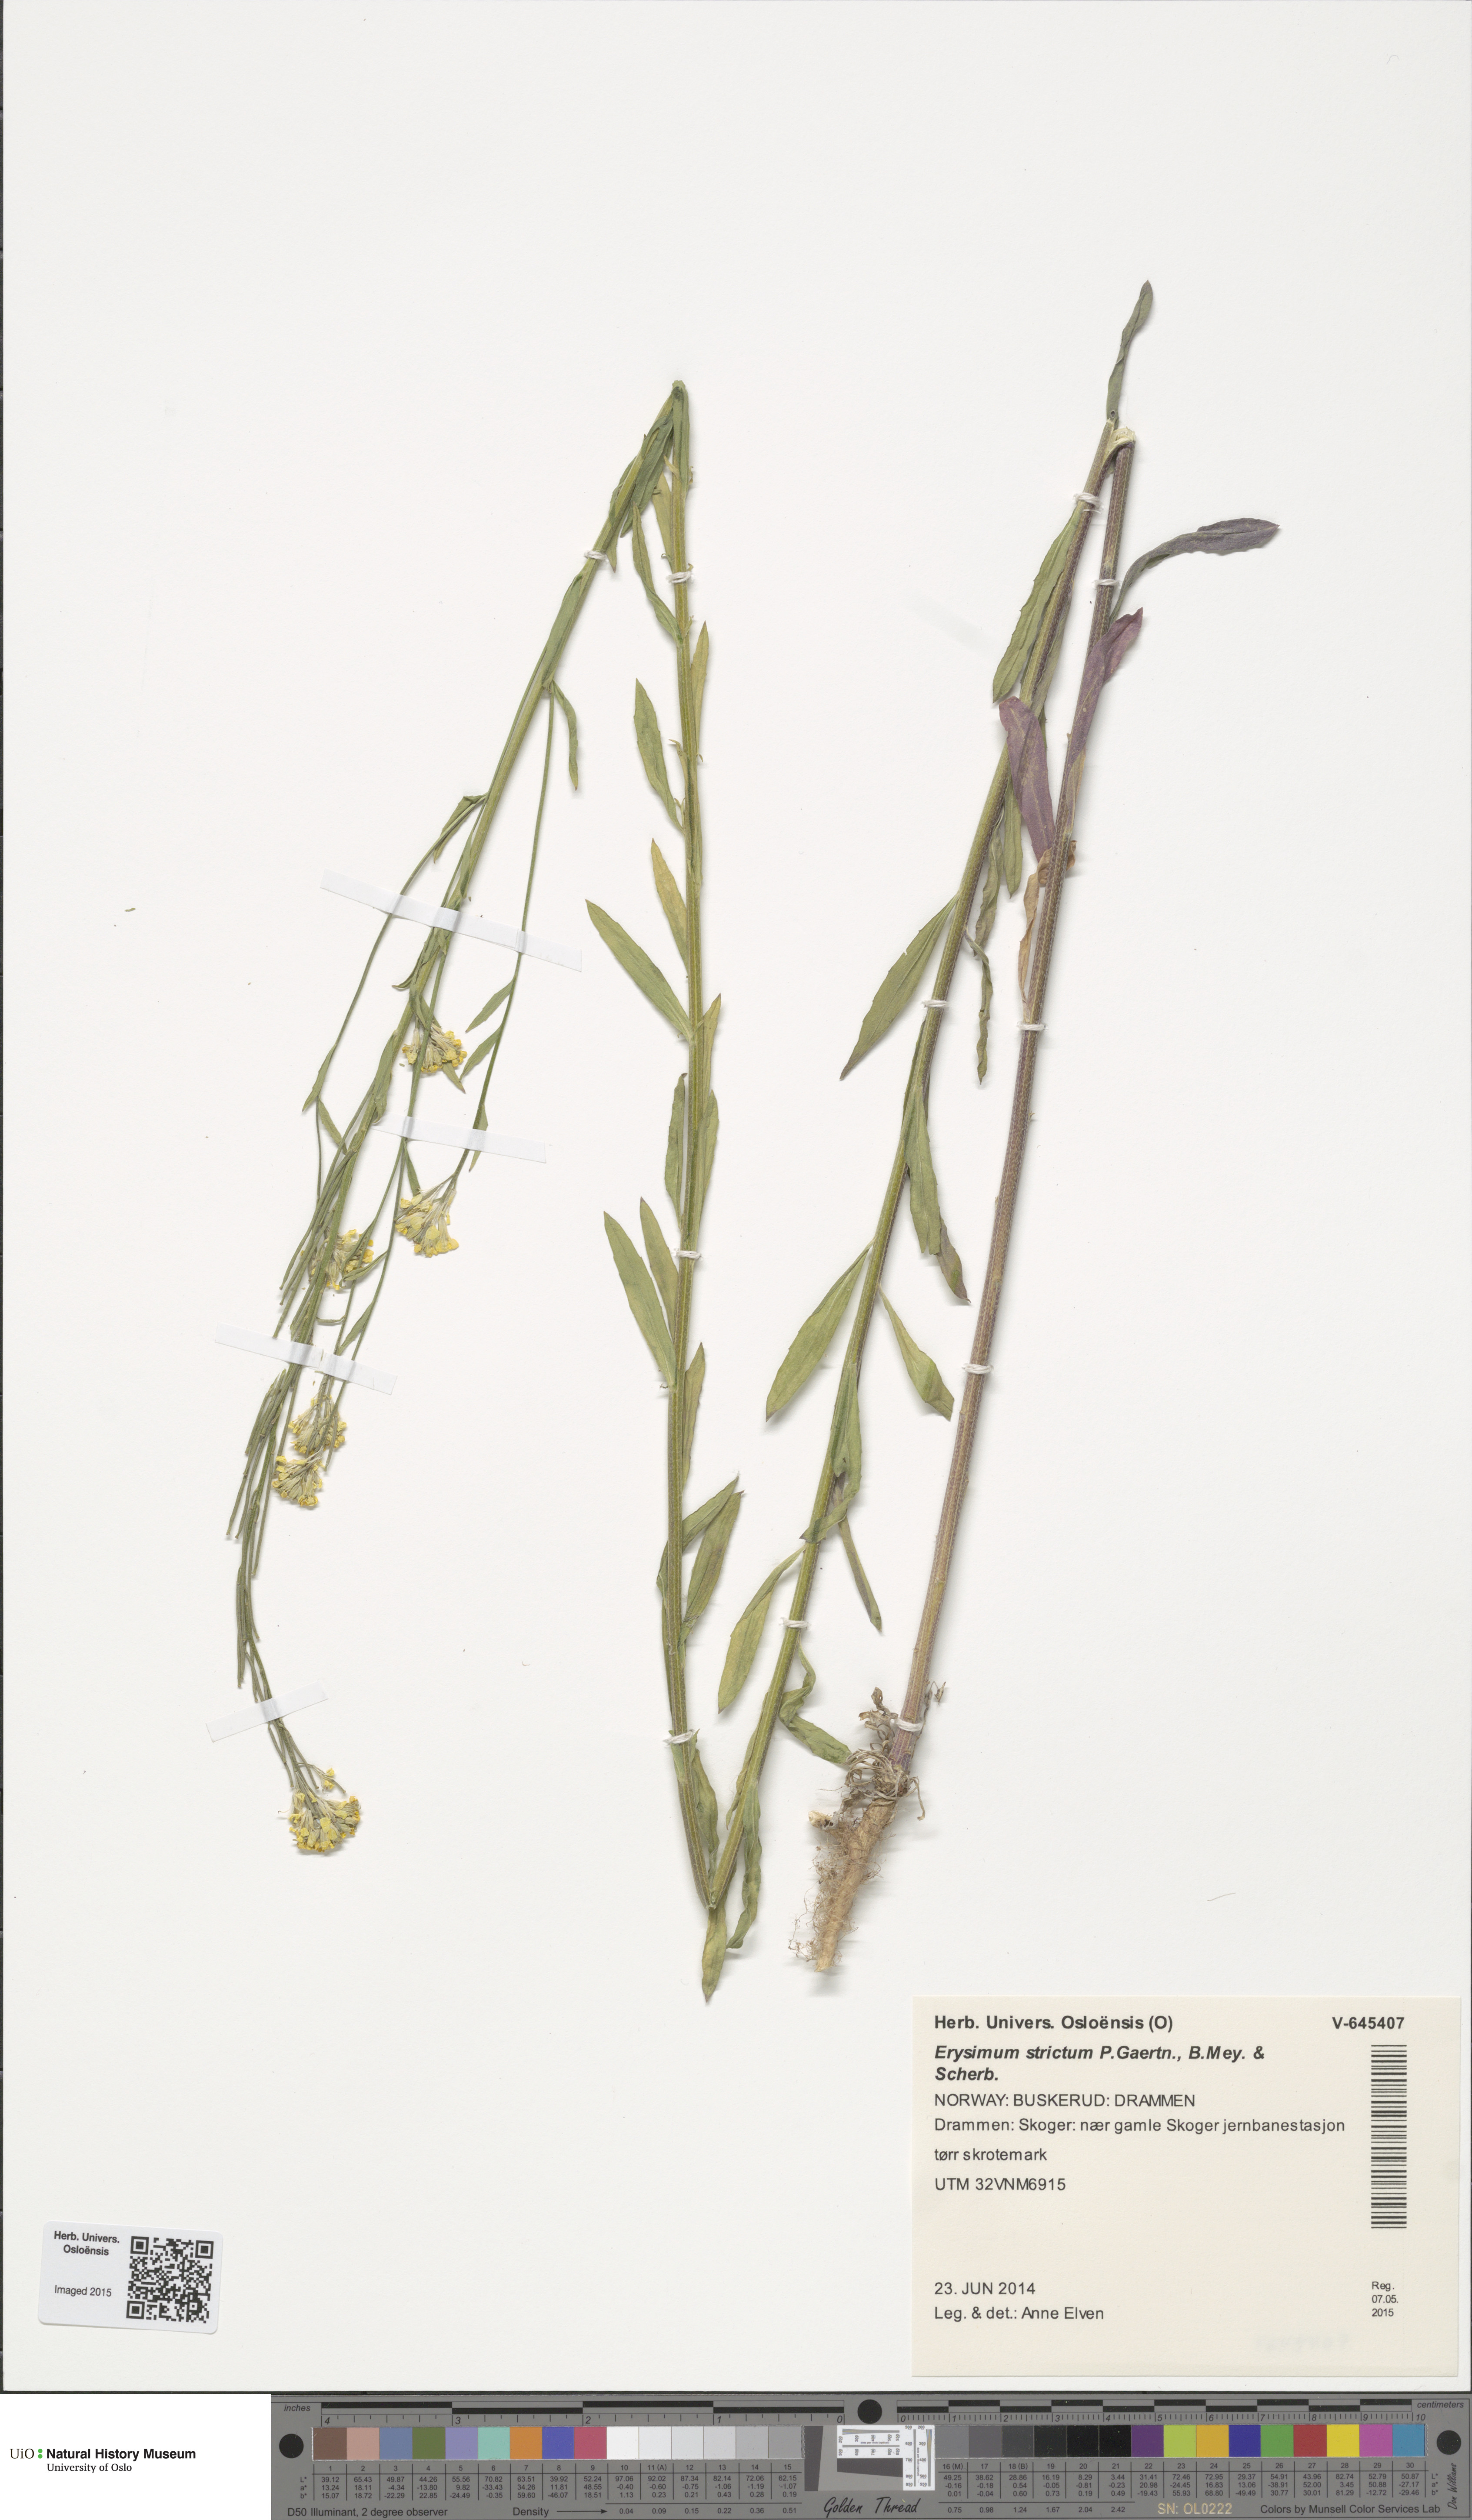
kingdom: Plantae
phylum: Tracheophyta
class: Magnoliopsida
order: Brassicales
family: Brassicaceae
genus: Erysimum
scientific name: Erysimum virgatum
